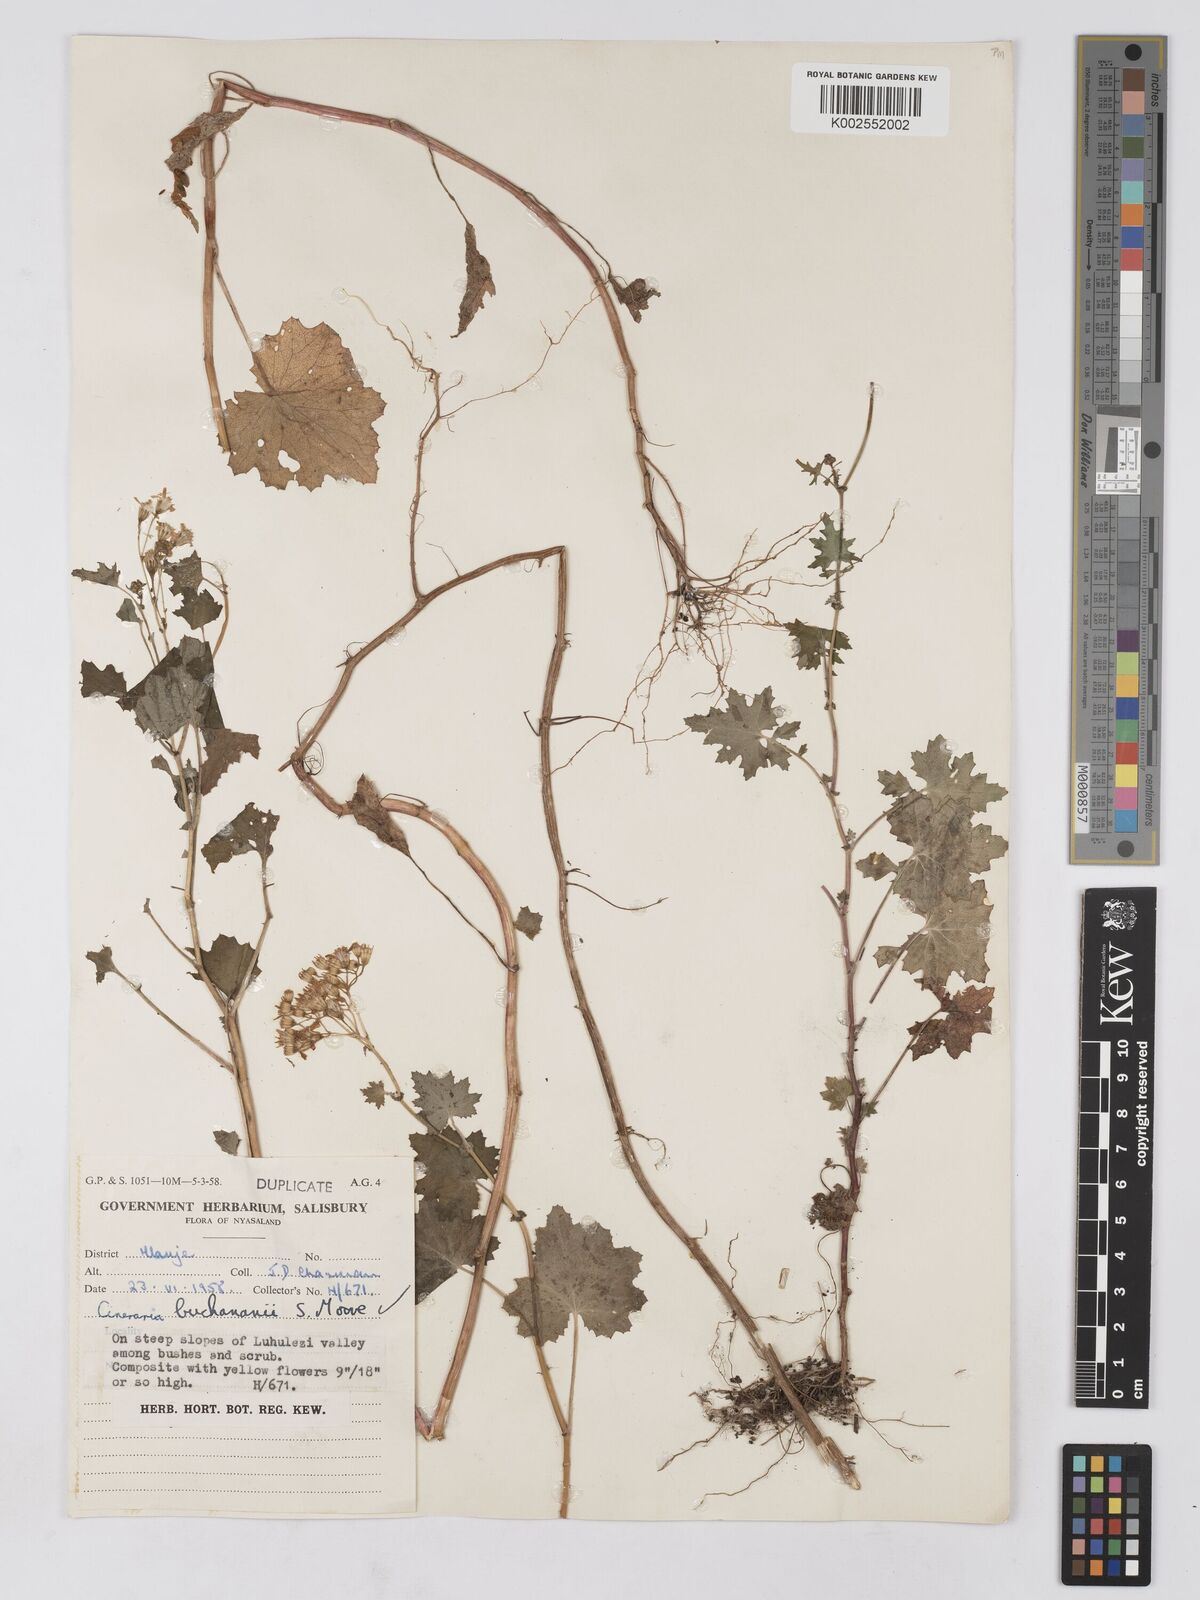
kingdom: Plantae
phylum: Tracheophyta
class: Magnoliopsida
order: Asterales
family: Asteraceae
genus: Cineraria
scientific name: Cineraria deltoidea
